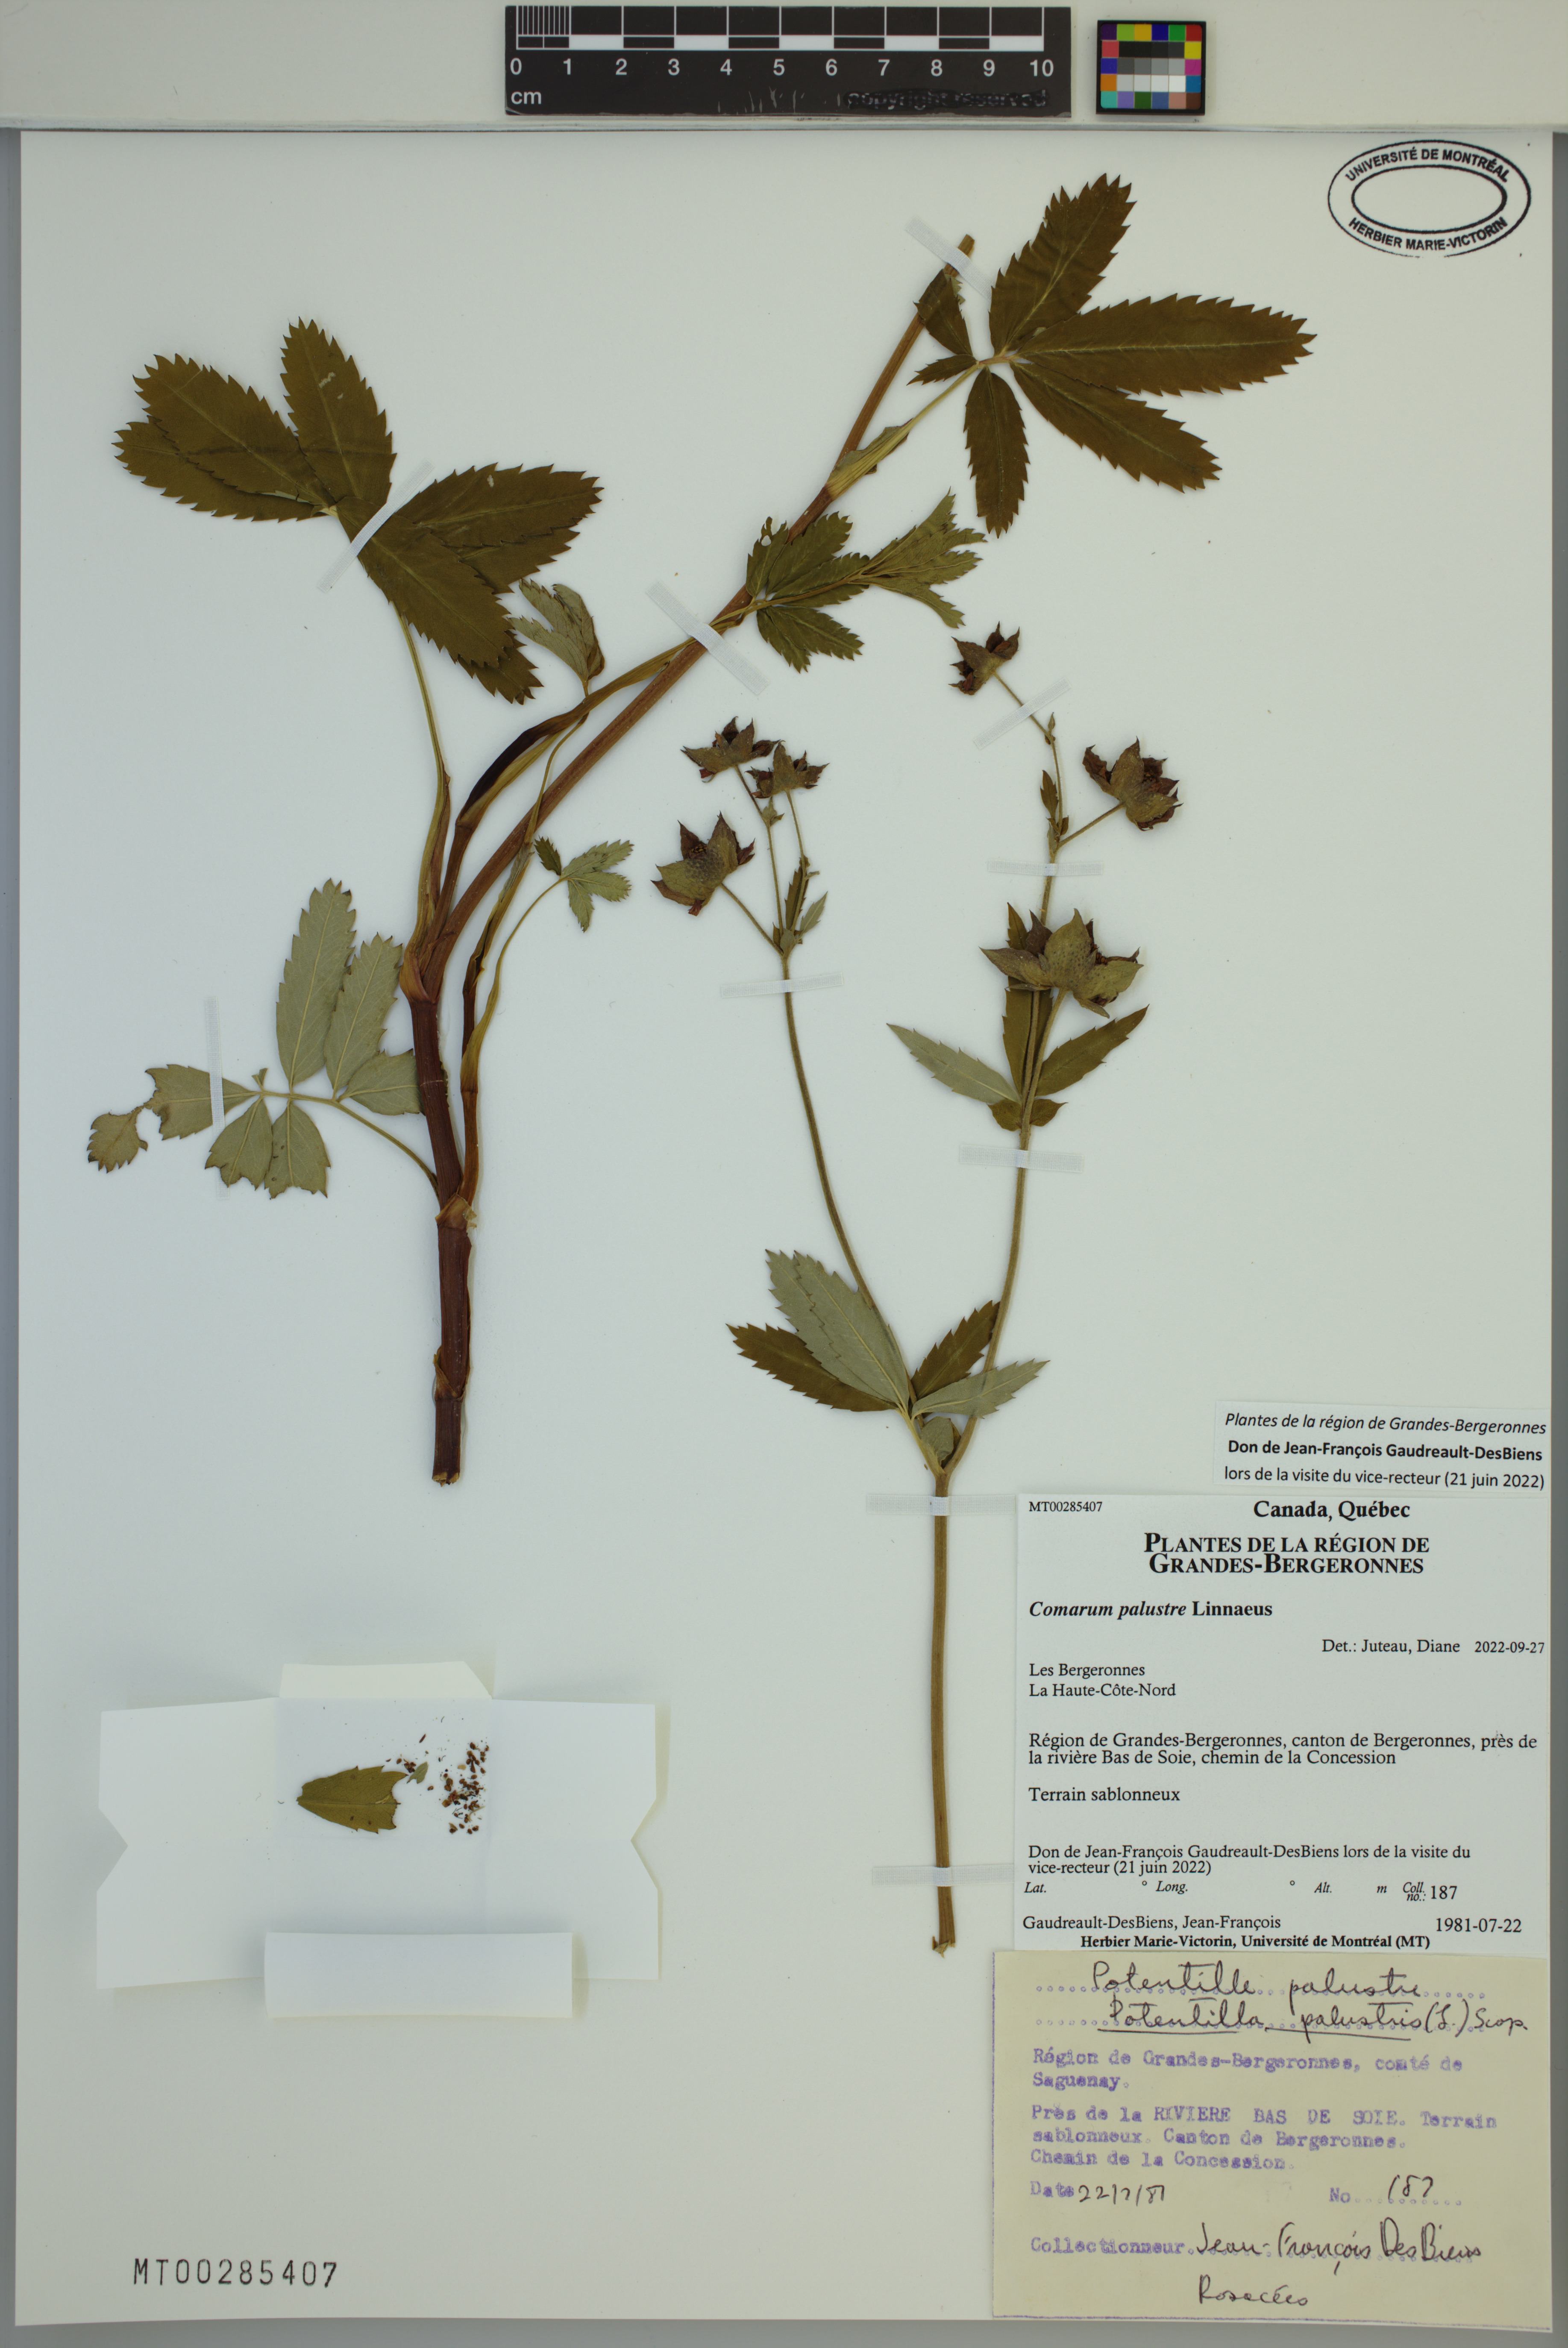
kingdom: Plantae
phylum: Tracheophyta
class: Magnoliopsida
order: Rosales
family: Rosaceae
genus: Comarum
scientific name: Comarum palustre
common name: Marsh cinquefoil
